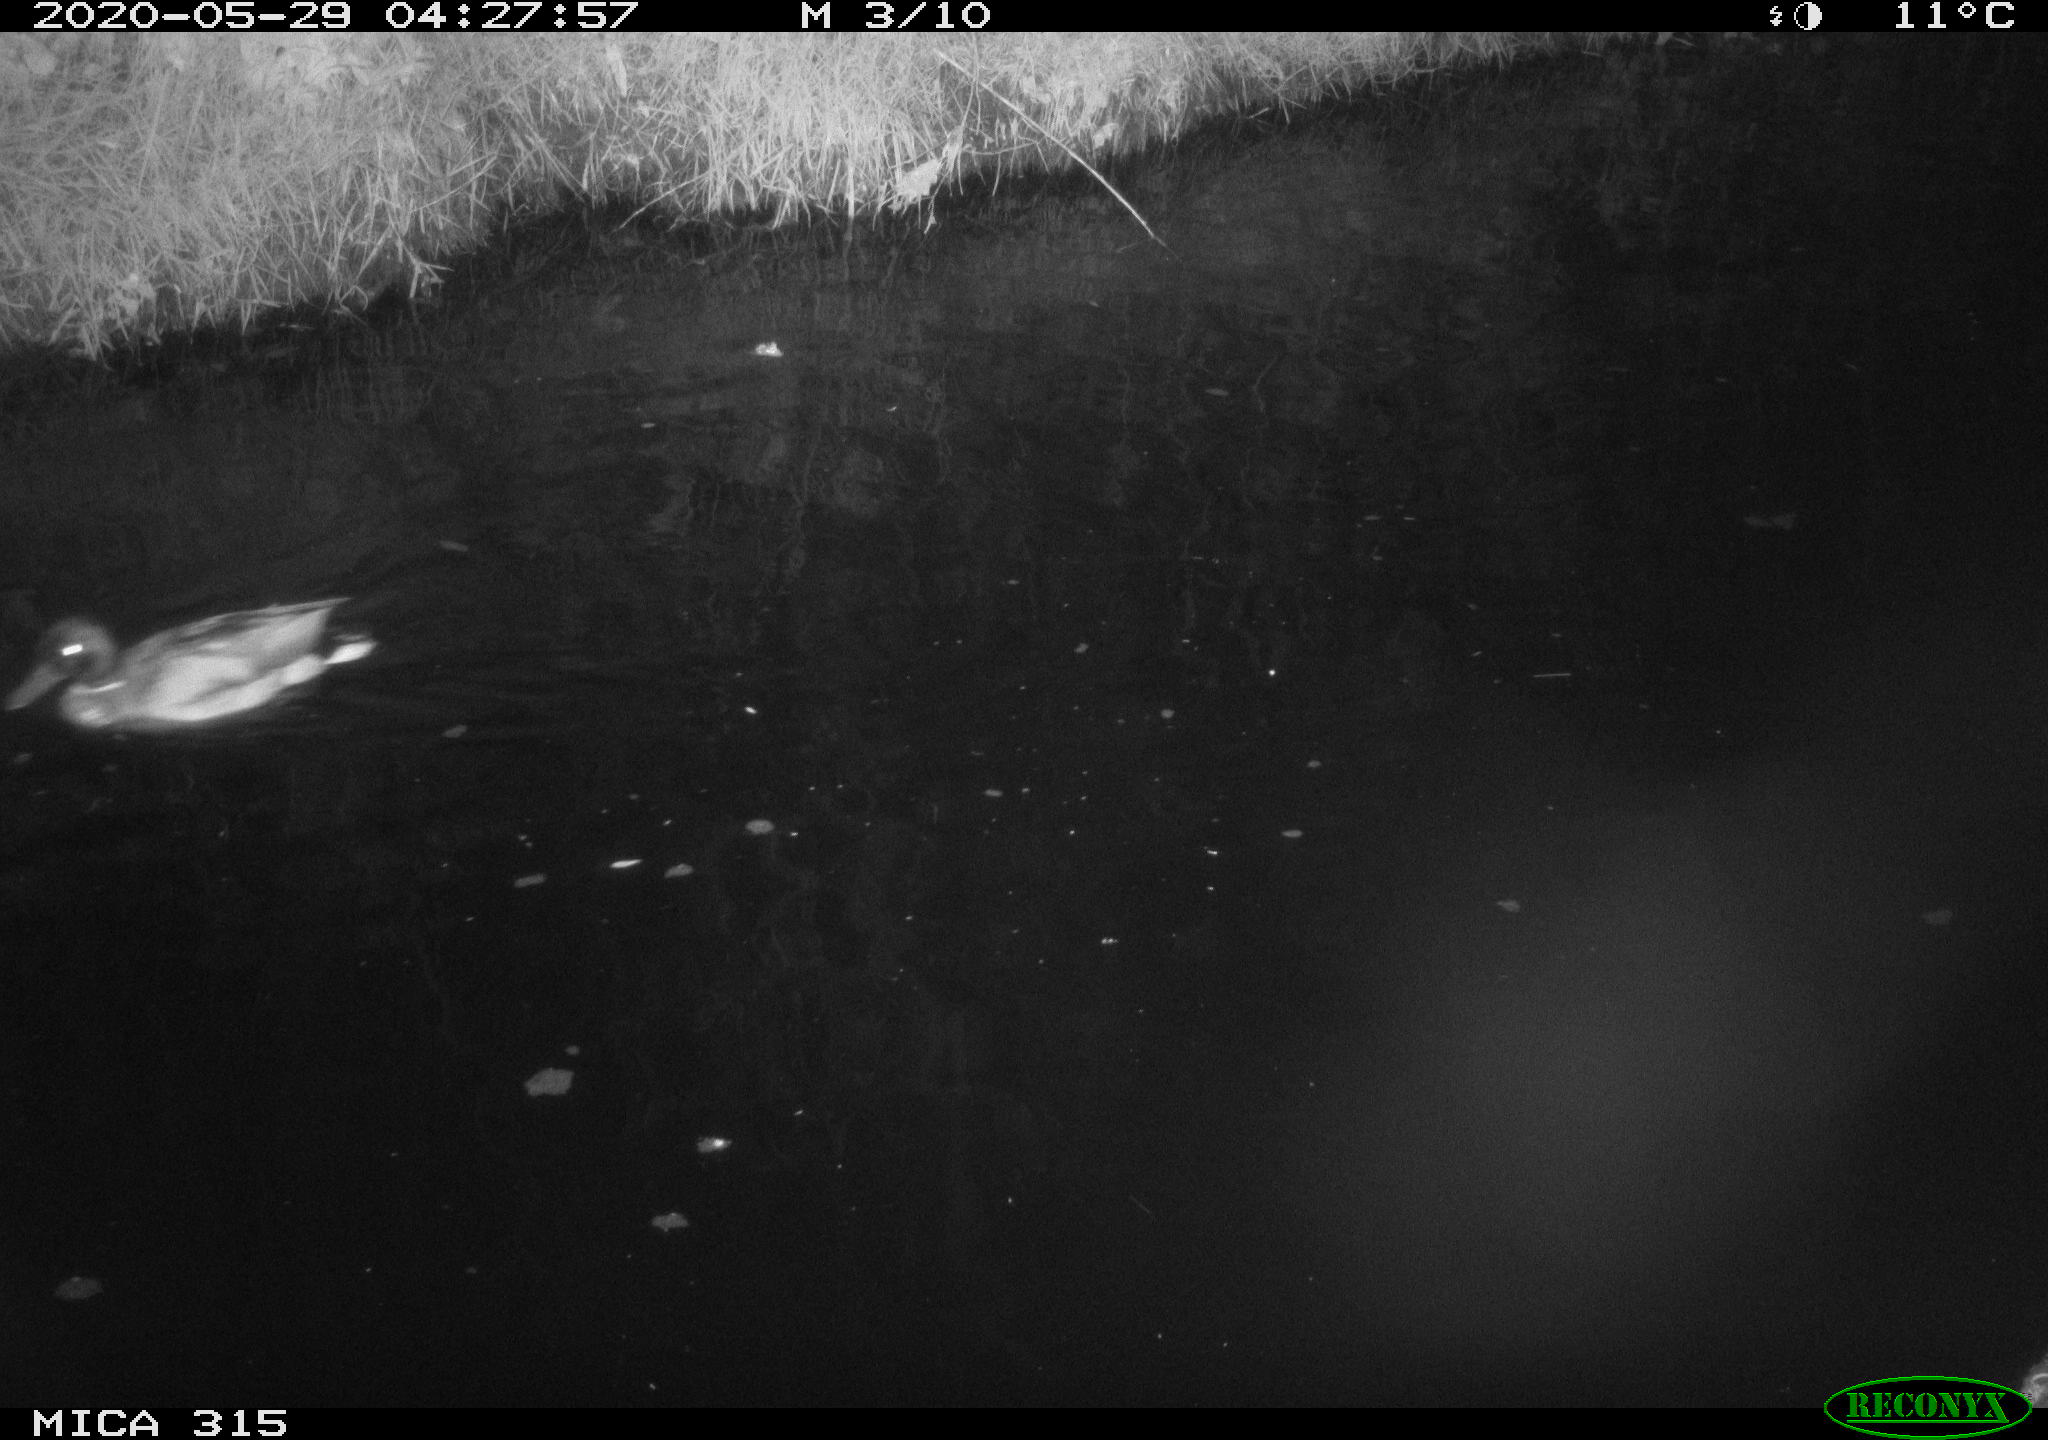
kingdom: Animalia
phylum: Chordata
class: Aves
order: Anseriformes
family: Anatidae
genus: Anas
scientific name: Anas platyrhynchos
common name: Mallard
